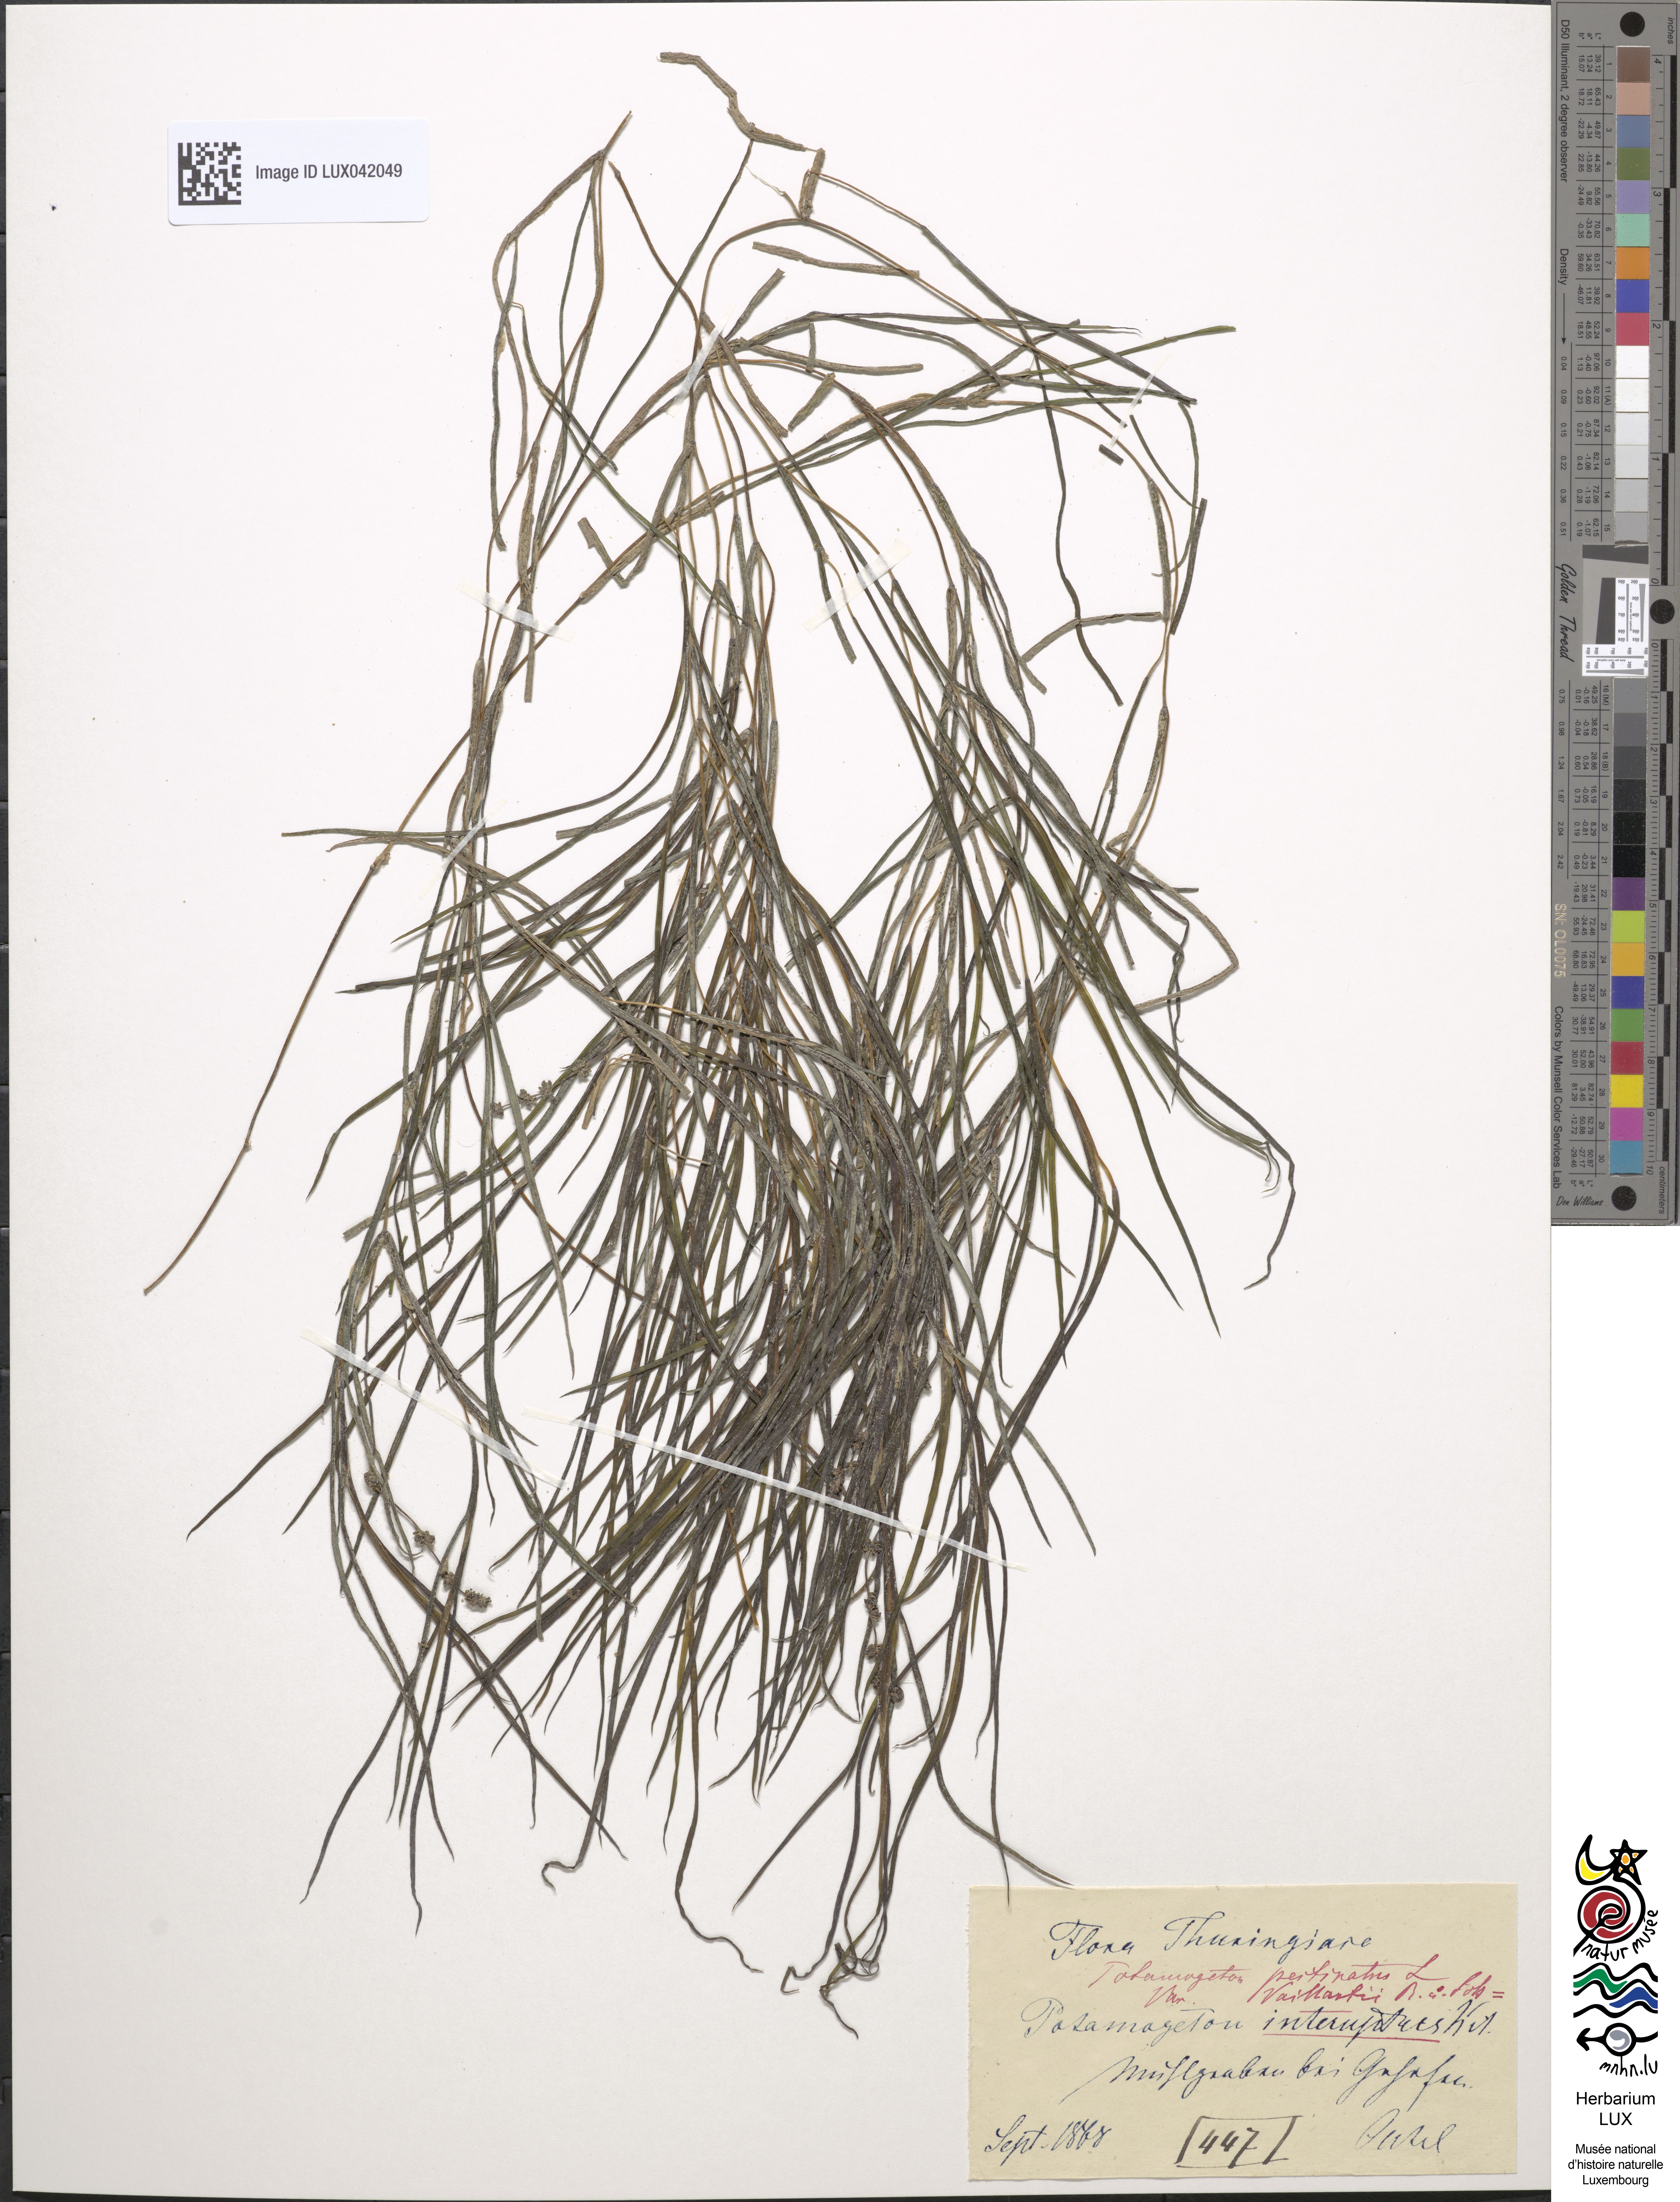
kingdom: Plantae
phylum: Tracheophyta
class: Liliopsida
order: Alismatales
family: Potamogetonaceae
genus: Stuckenia
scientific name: Stuckenia pectinata
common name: Sago pondweed
